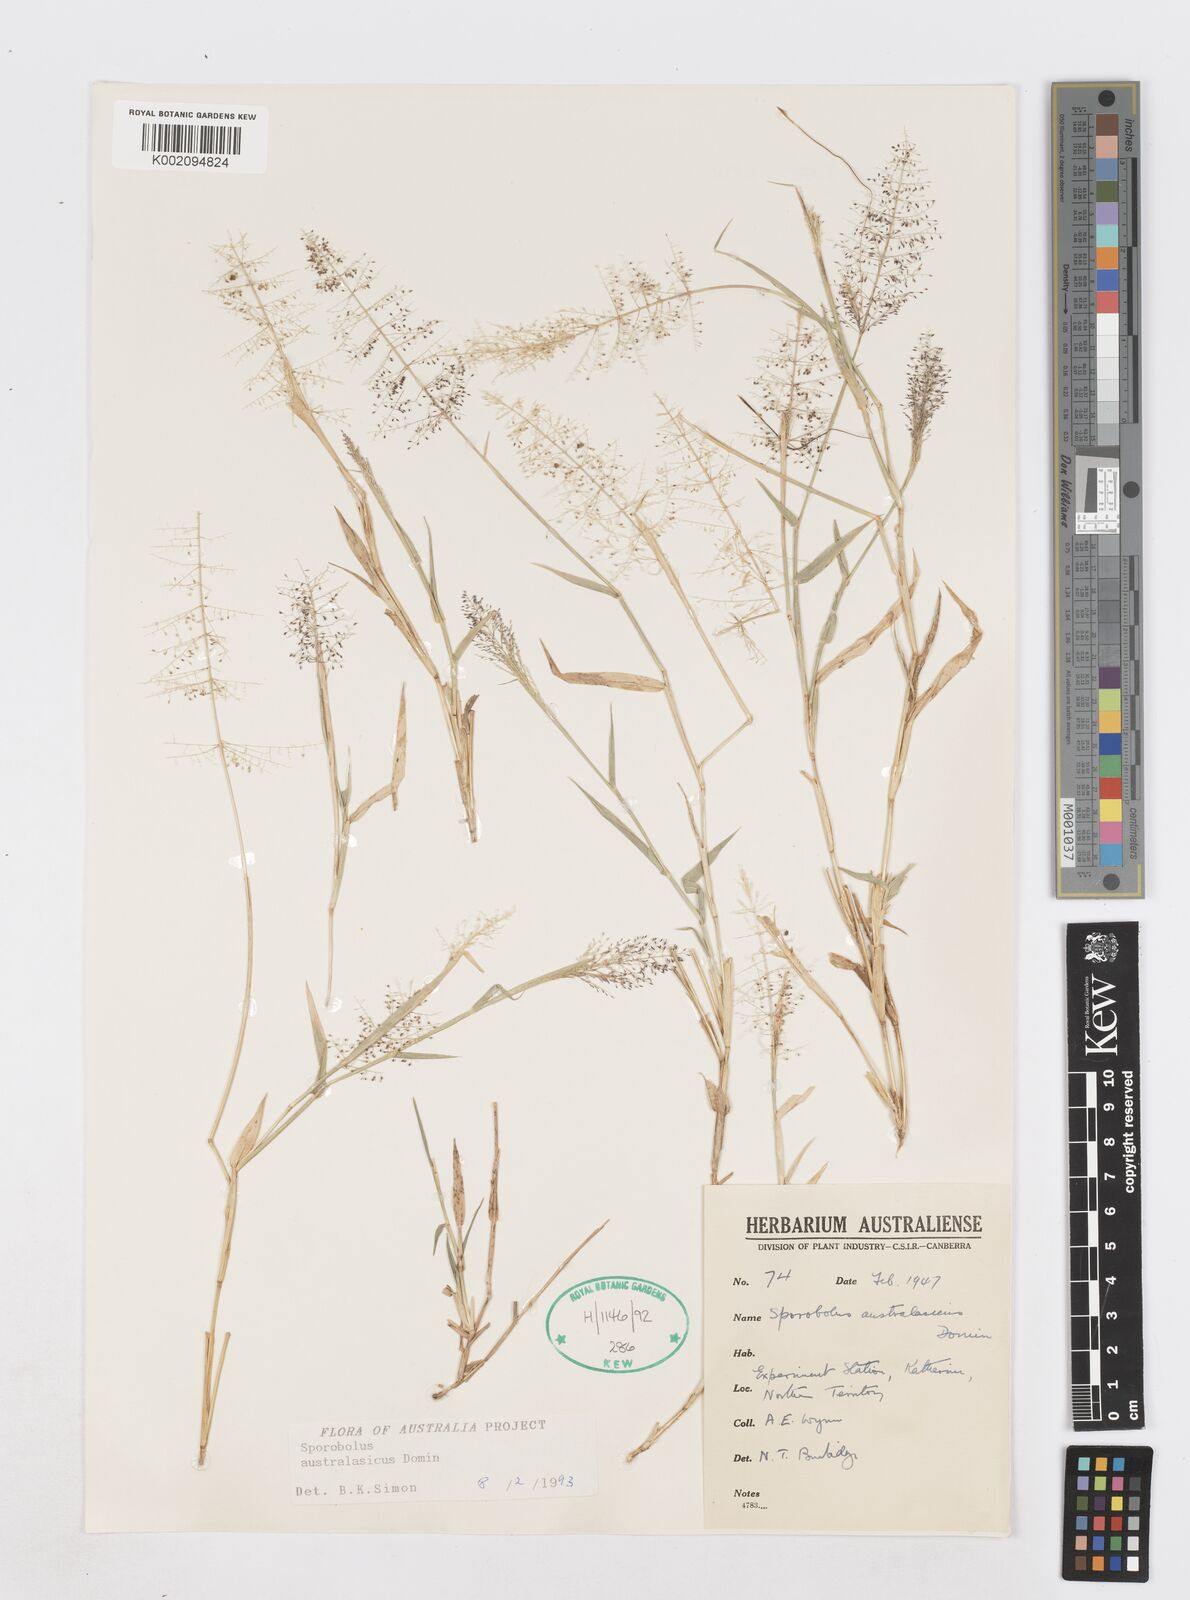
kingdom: Plantae
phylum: Tracheophyta
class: Liliopsida
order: Poales
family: Poaceae
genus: Sporobolus
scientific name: Sporobolus australasicus
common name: Australian dropseed
